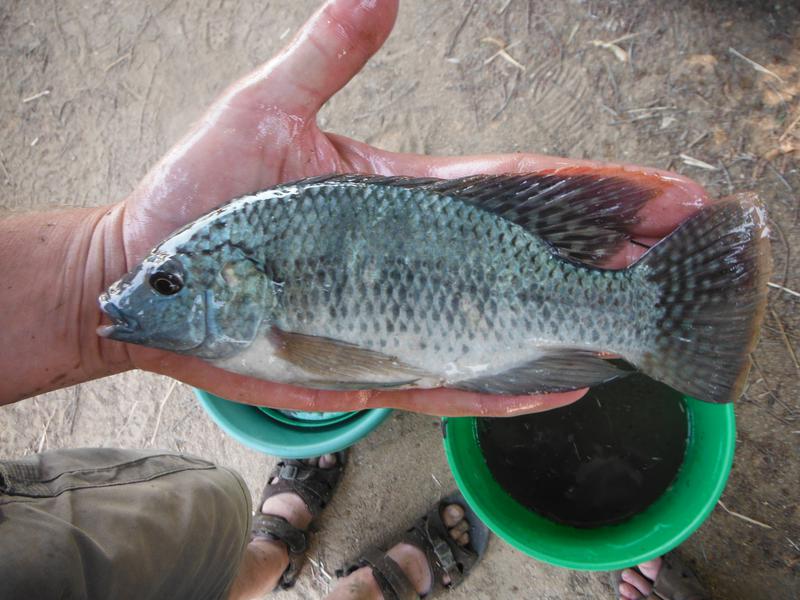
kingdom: Animalia
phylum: Chordata
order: Perciformes
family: Cichlidae
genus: Oreochromis
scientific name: Oreochromis
